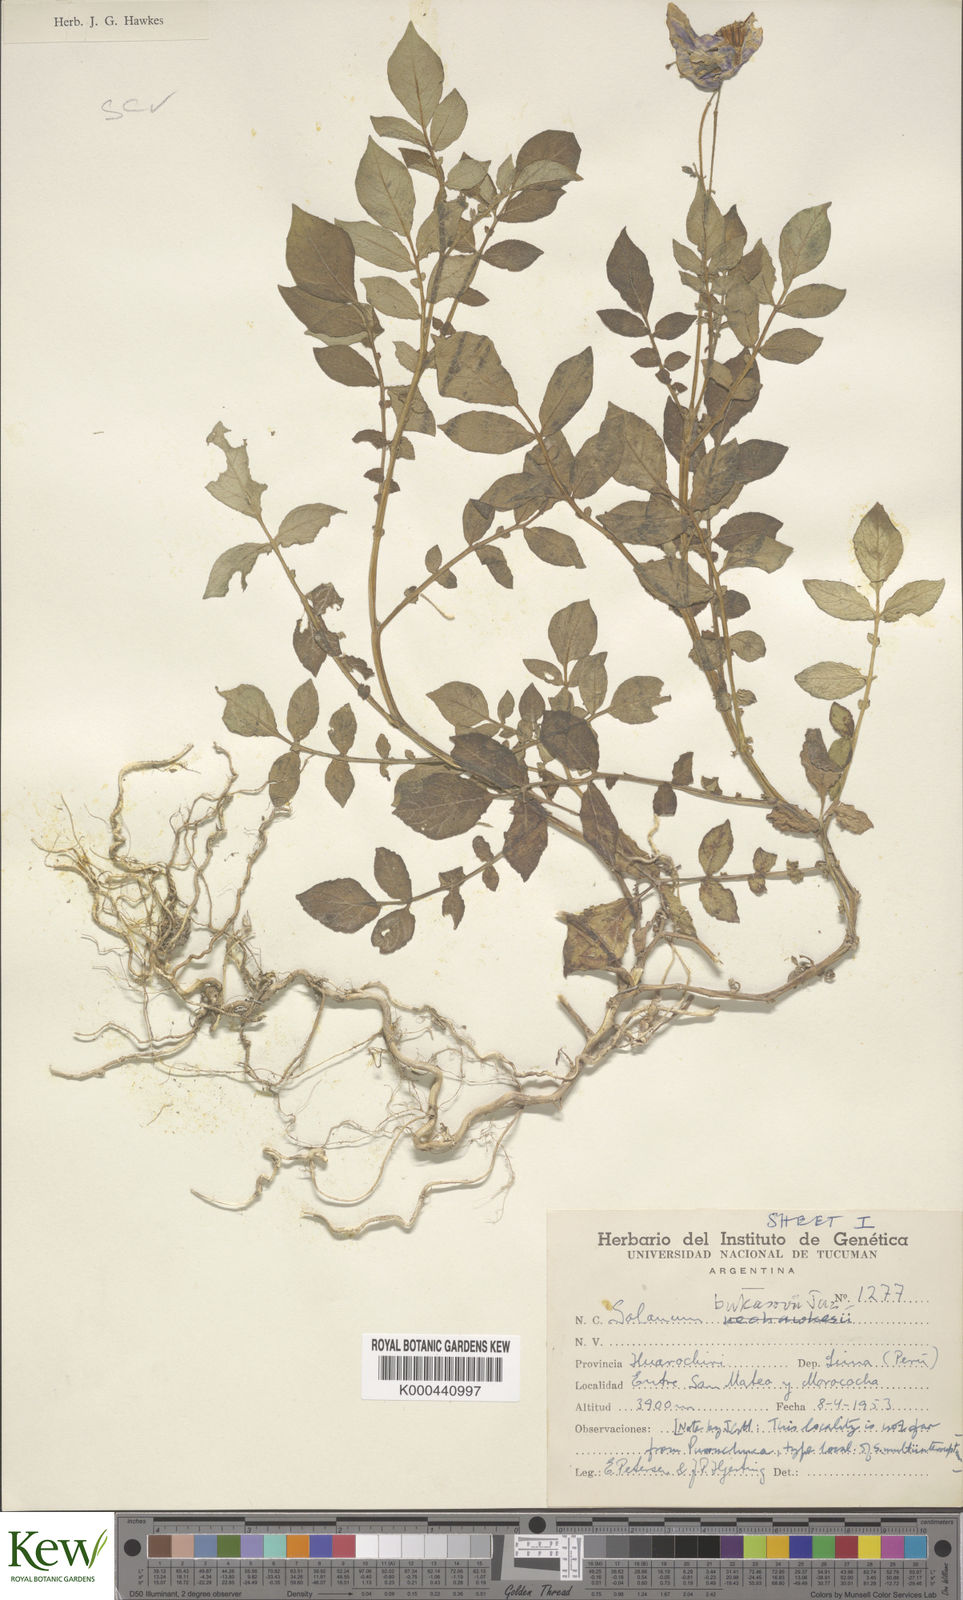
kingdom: Plantae
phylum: Tracheophyta
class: Magnoliopsida
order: Solanales
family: Solanaceae
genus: Solanum
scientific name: Solanum candolleanum
